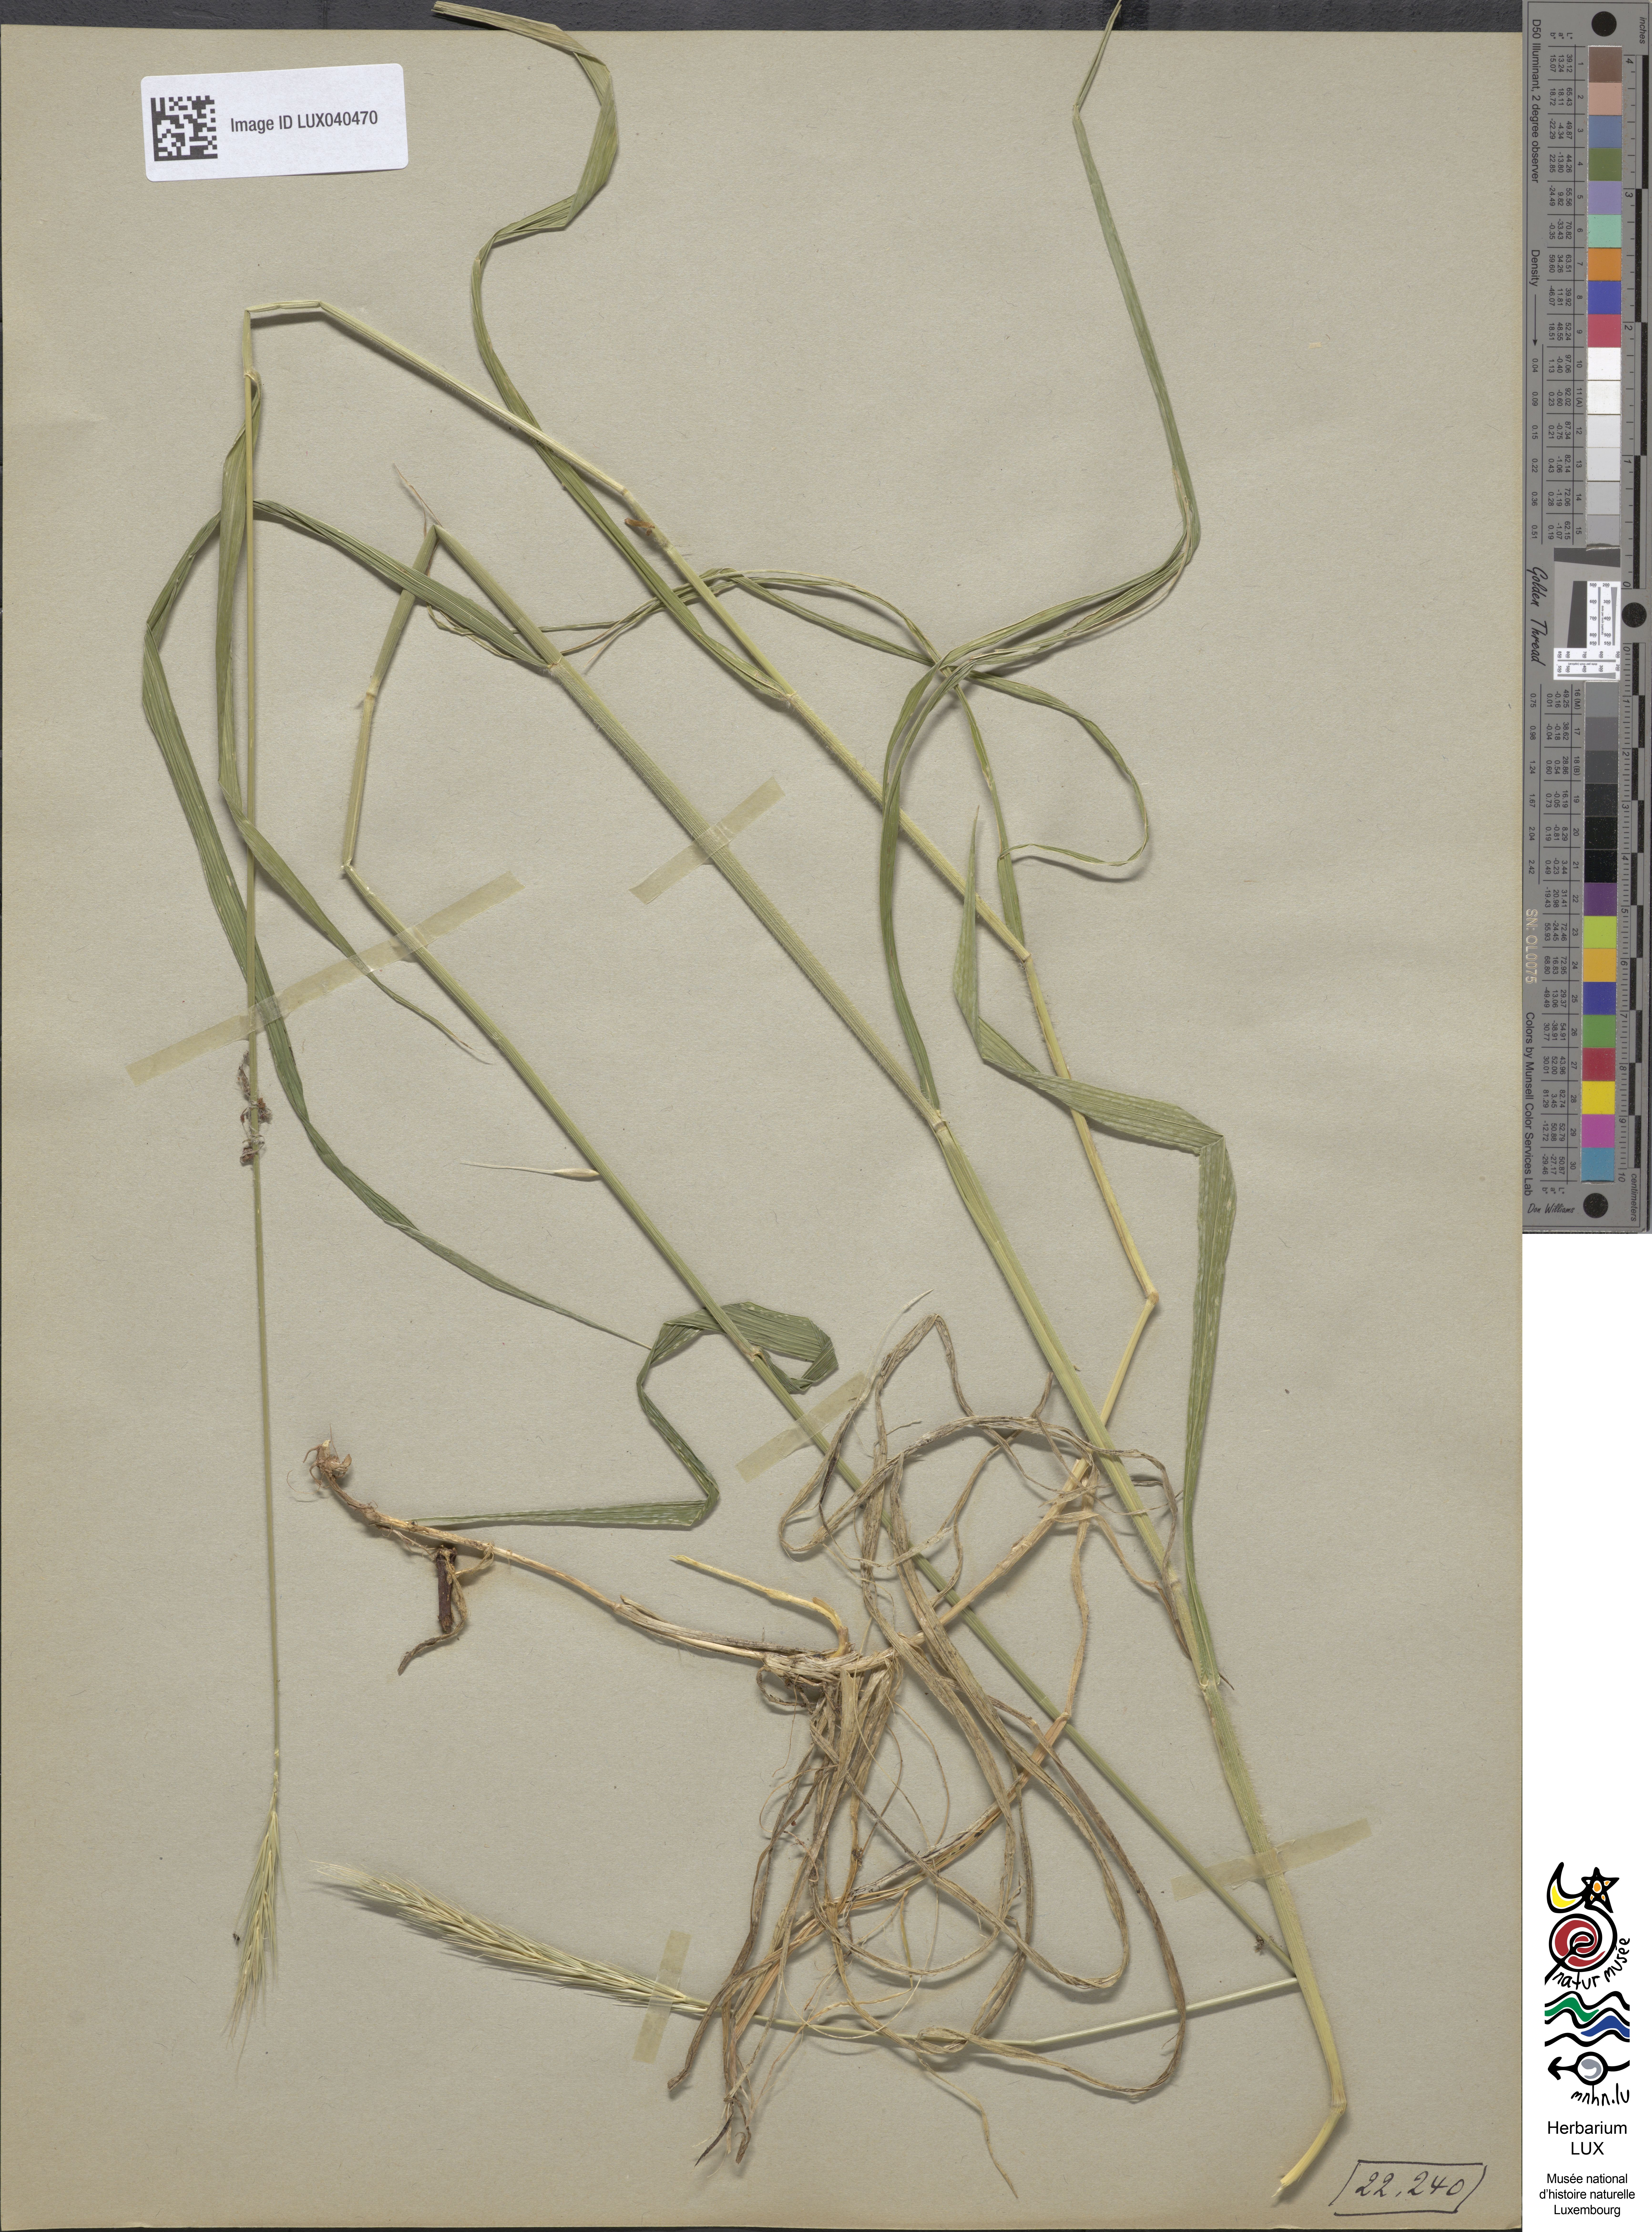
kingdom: Plantae
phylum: Tracheophyta
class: Liliopsida
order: Poales
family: Poaceae
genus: Hordelymus
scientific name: Hordelymus europaeus
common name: Wood-barley
